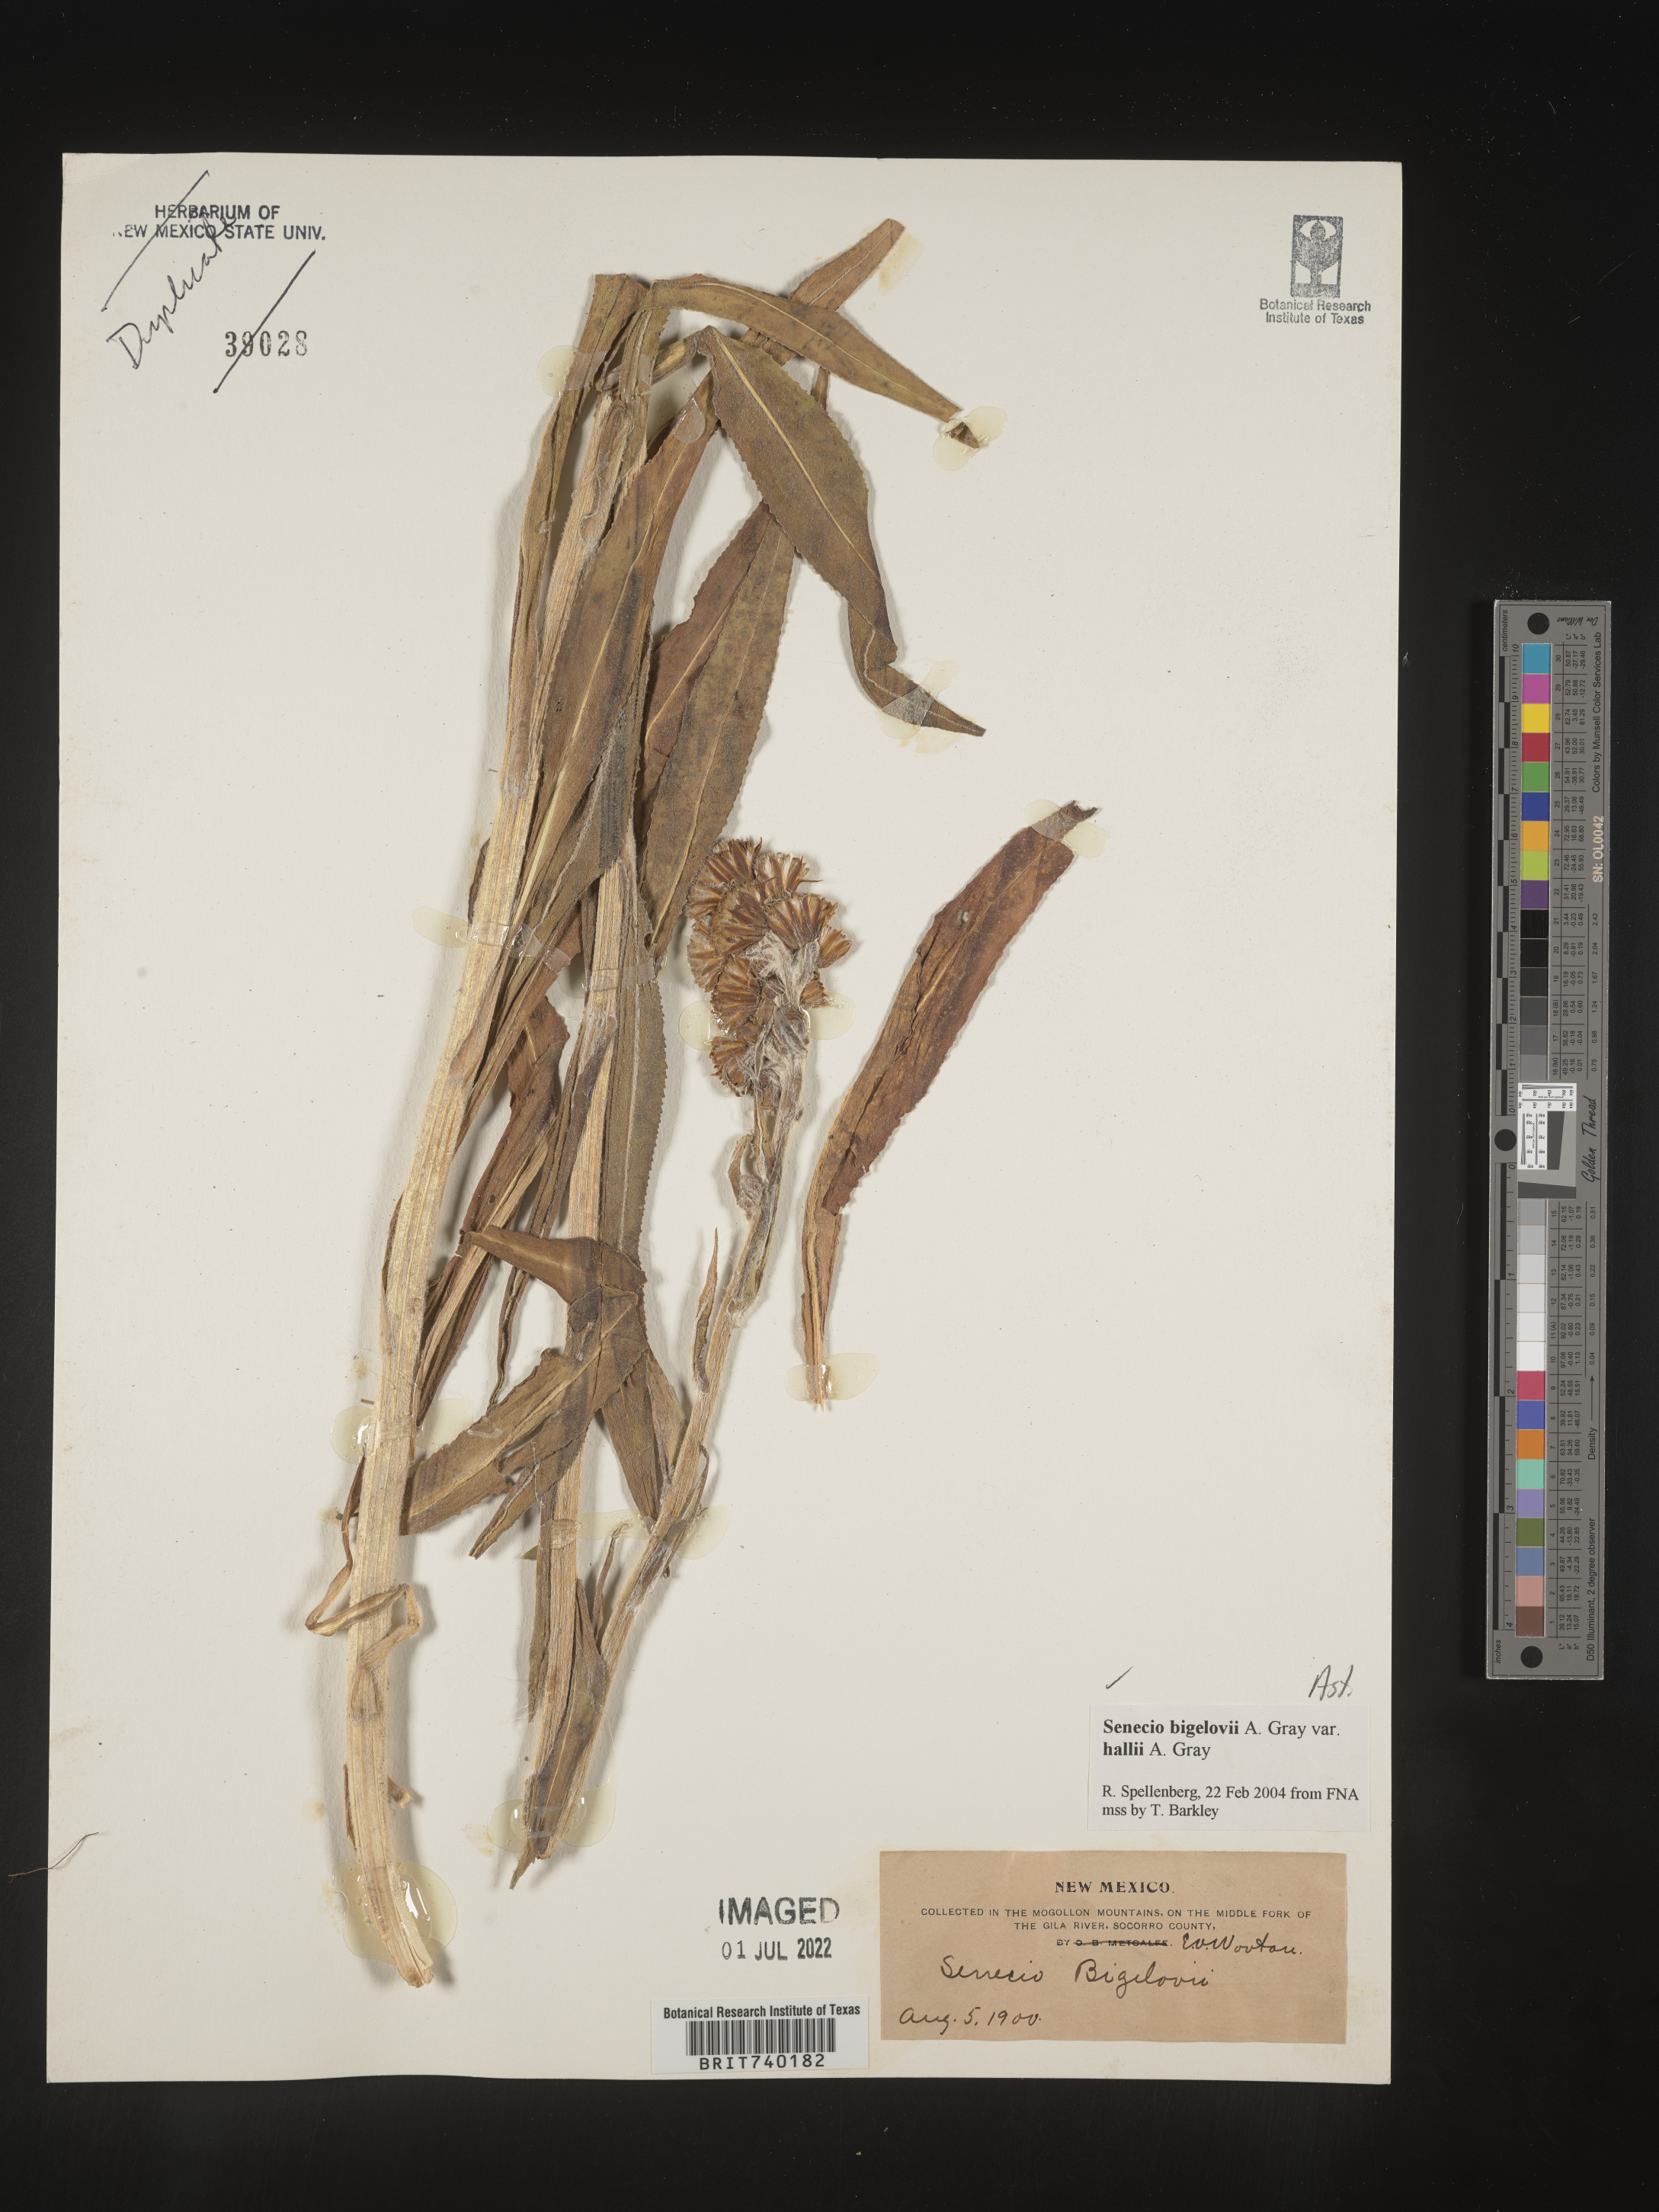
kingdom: Plantae
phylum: Tracheophyta
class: Magnoliopsida
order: Asterales
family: Asteraceae
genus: Senecio
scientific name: Senecio bigelovii
